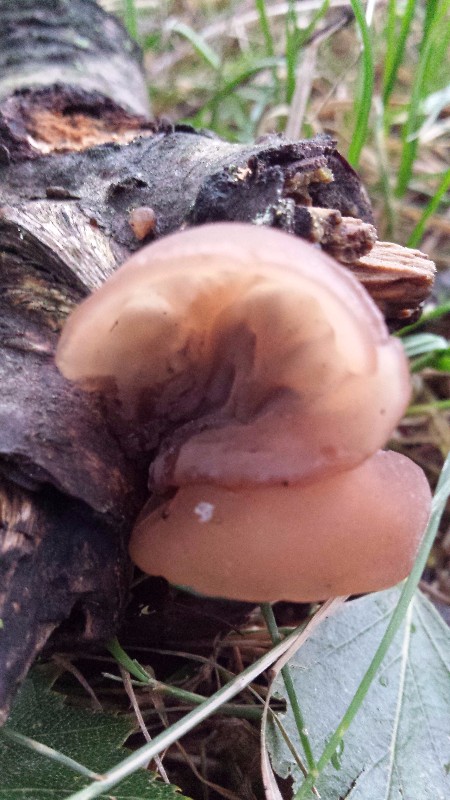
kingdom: Fungi
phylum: Basidiomycota
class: Agaricomycetes
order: Auriculariales
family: Auriculariaceae
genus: Auricularia
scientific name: Auricularia auricula-judae
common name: almindelig judasøre
